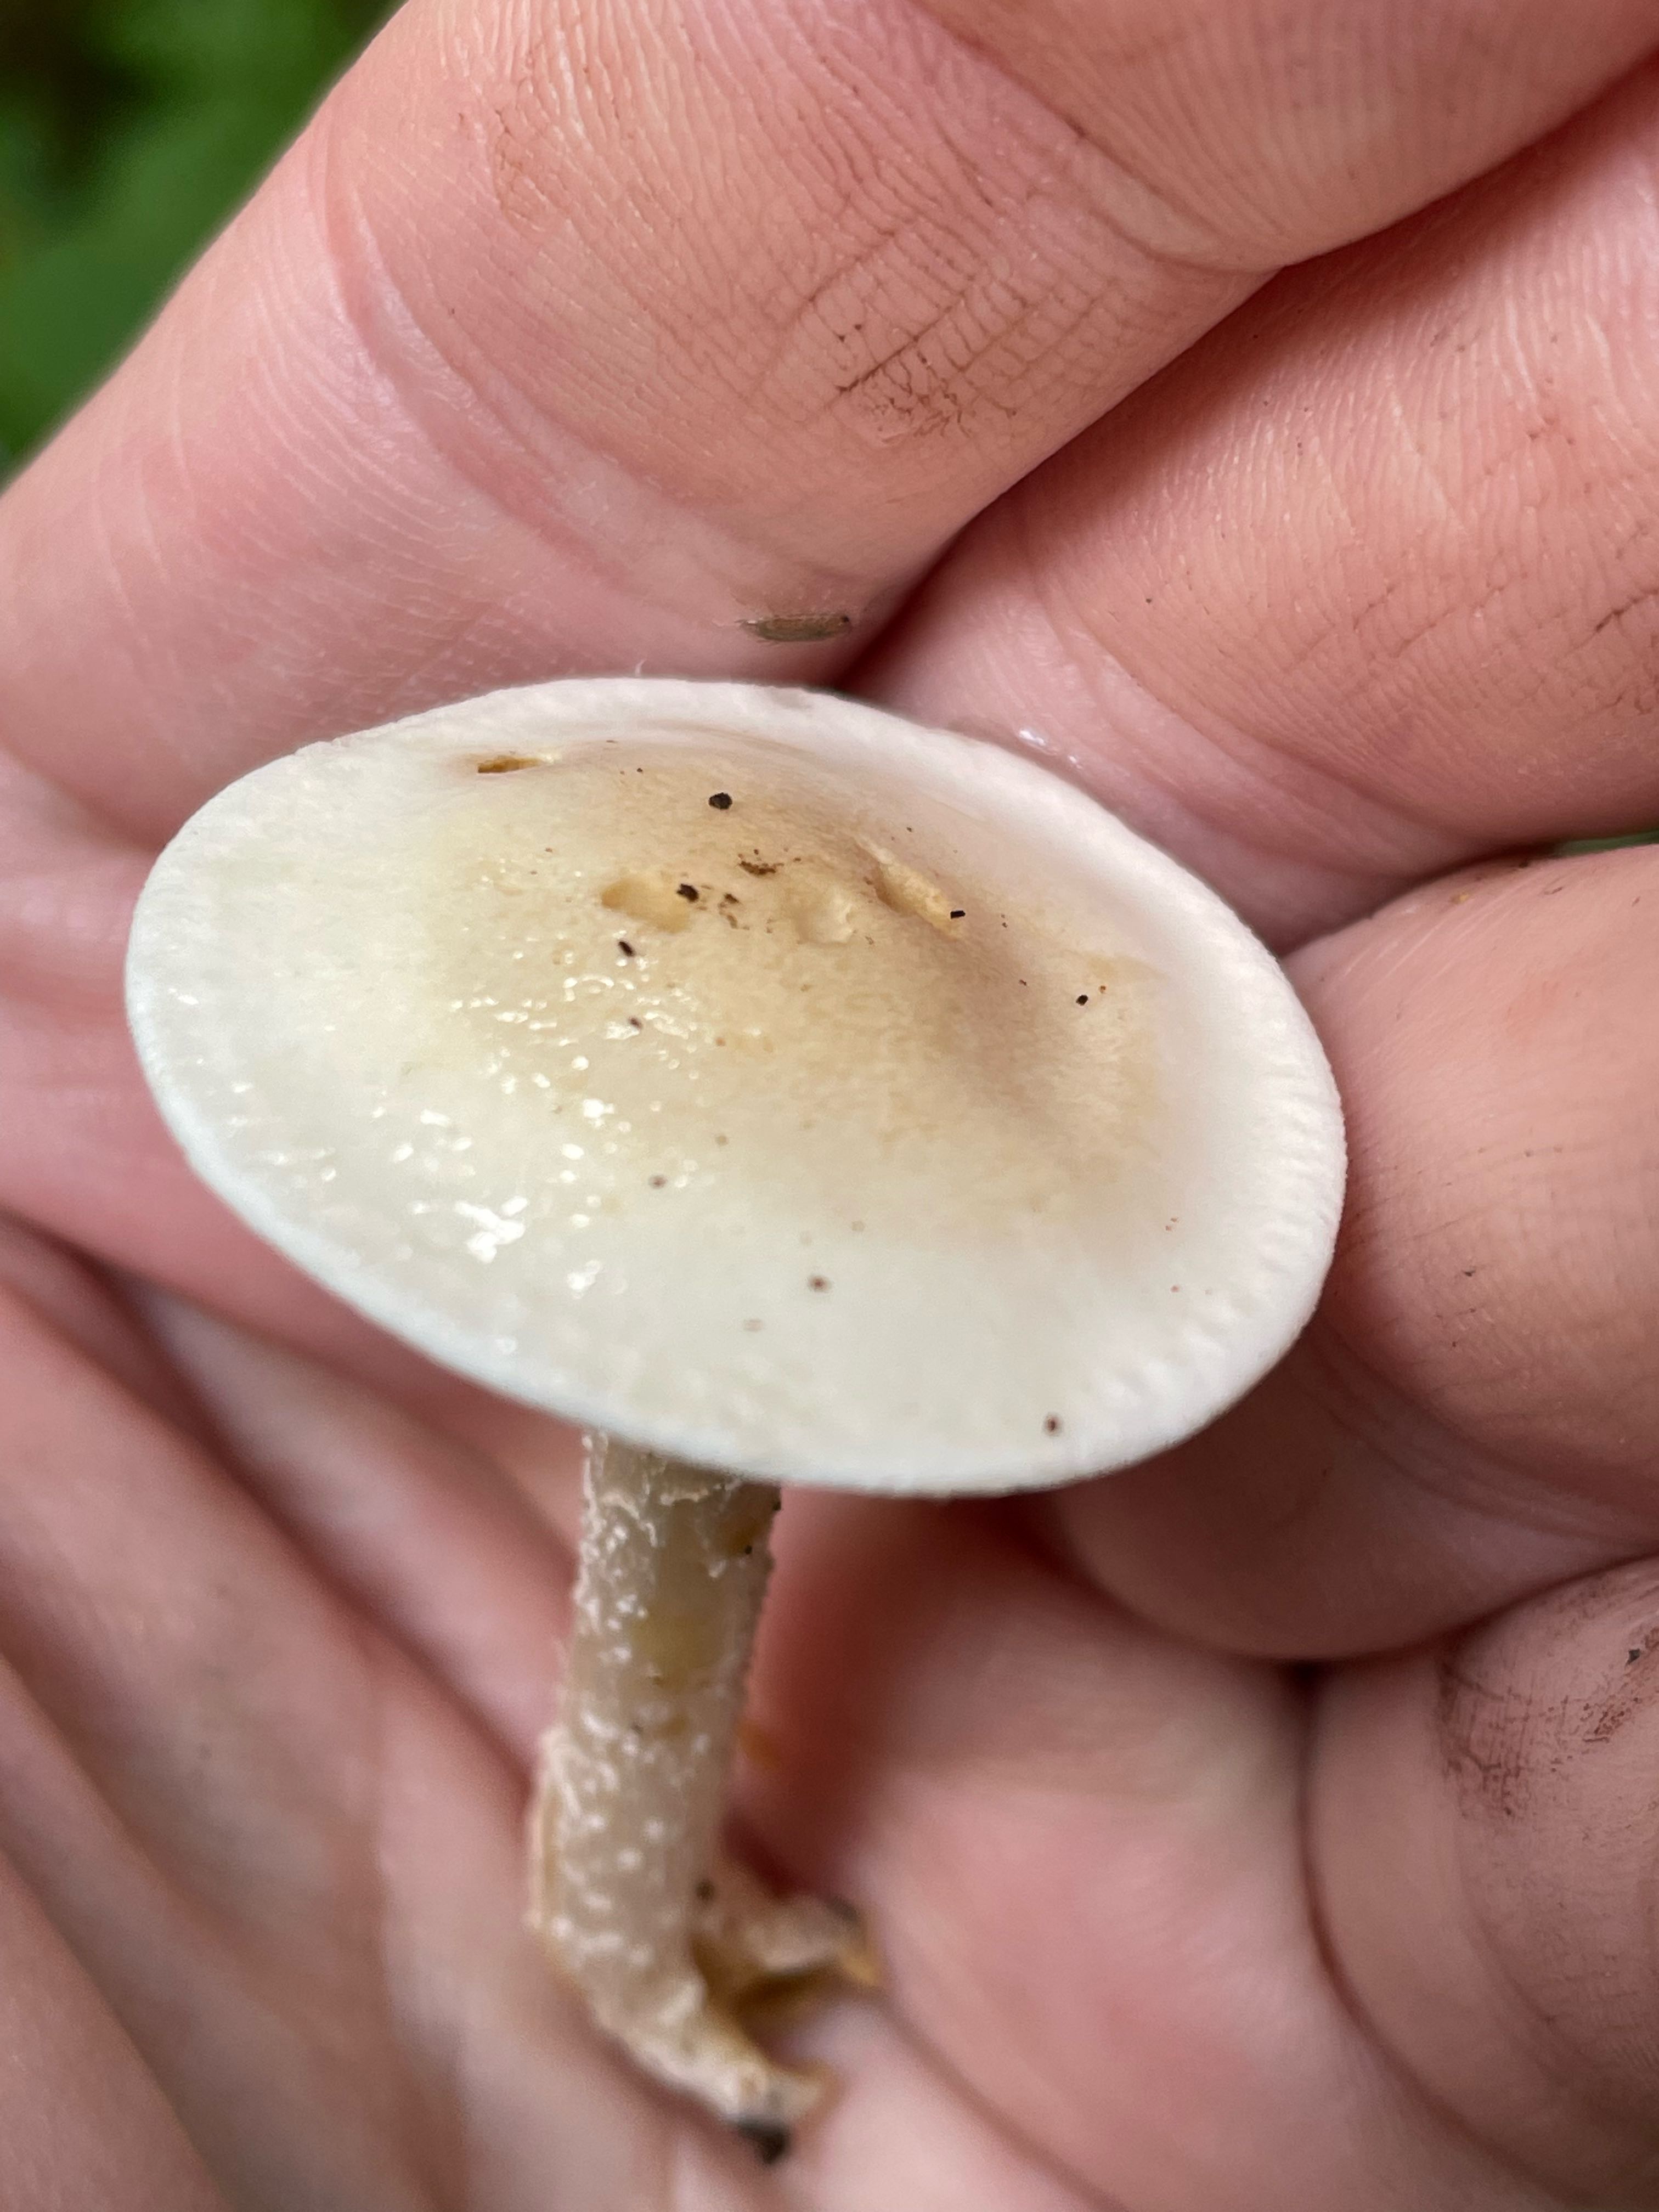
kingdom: Fungi
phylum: Basidiomycota
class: Agaricomycetes
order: Agaricales
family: Hymenogastraceae
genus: Hebeloma
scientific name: Hebeloma
